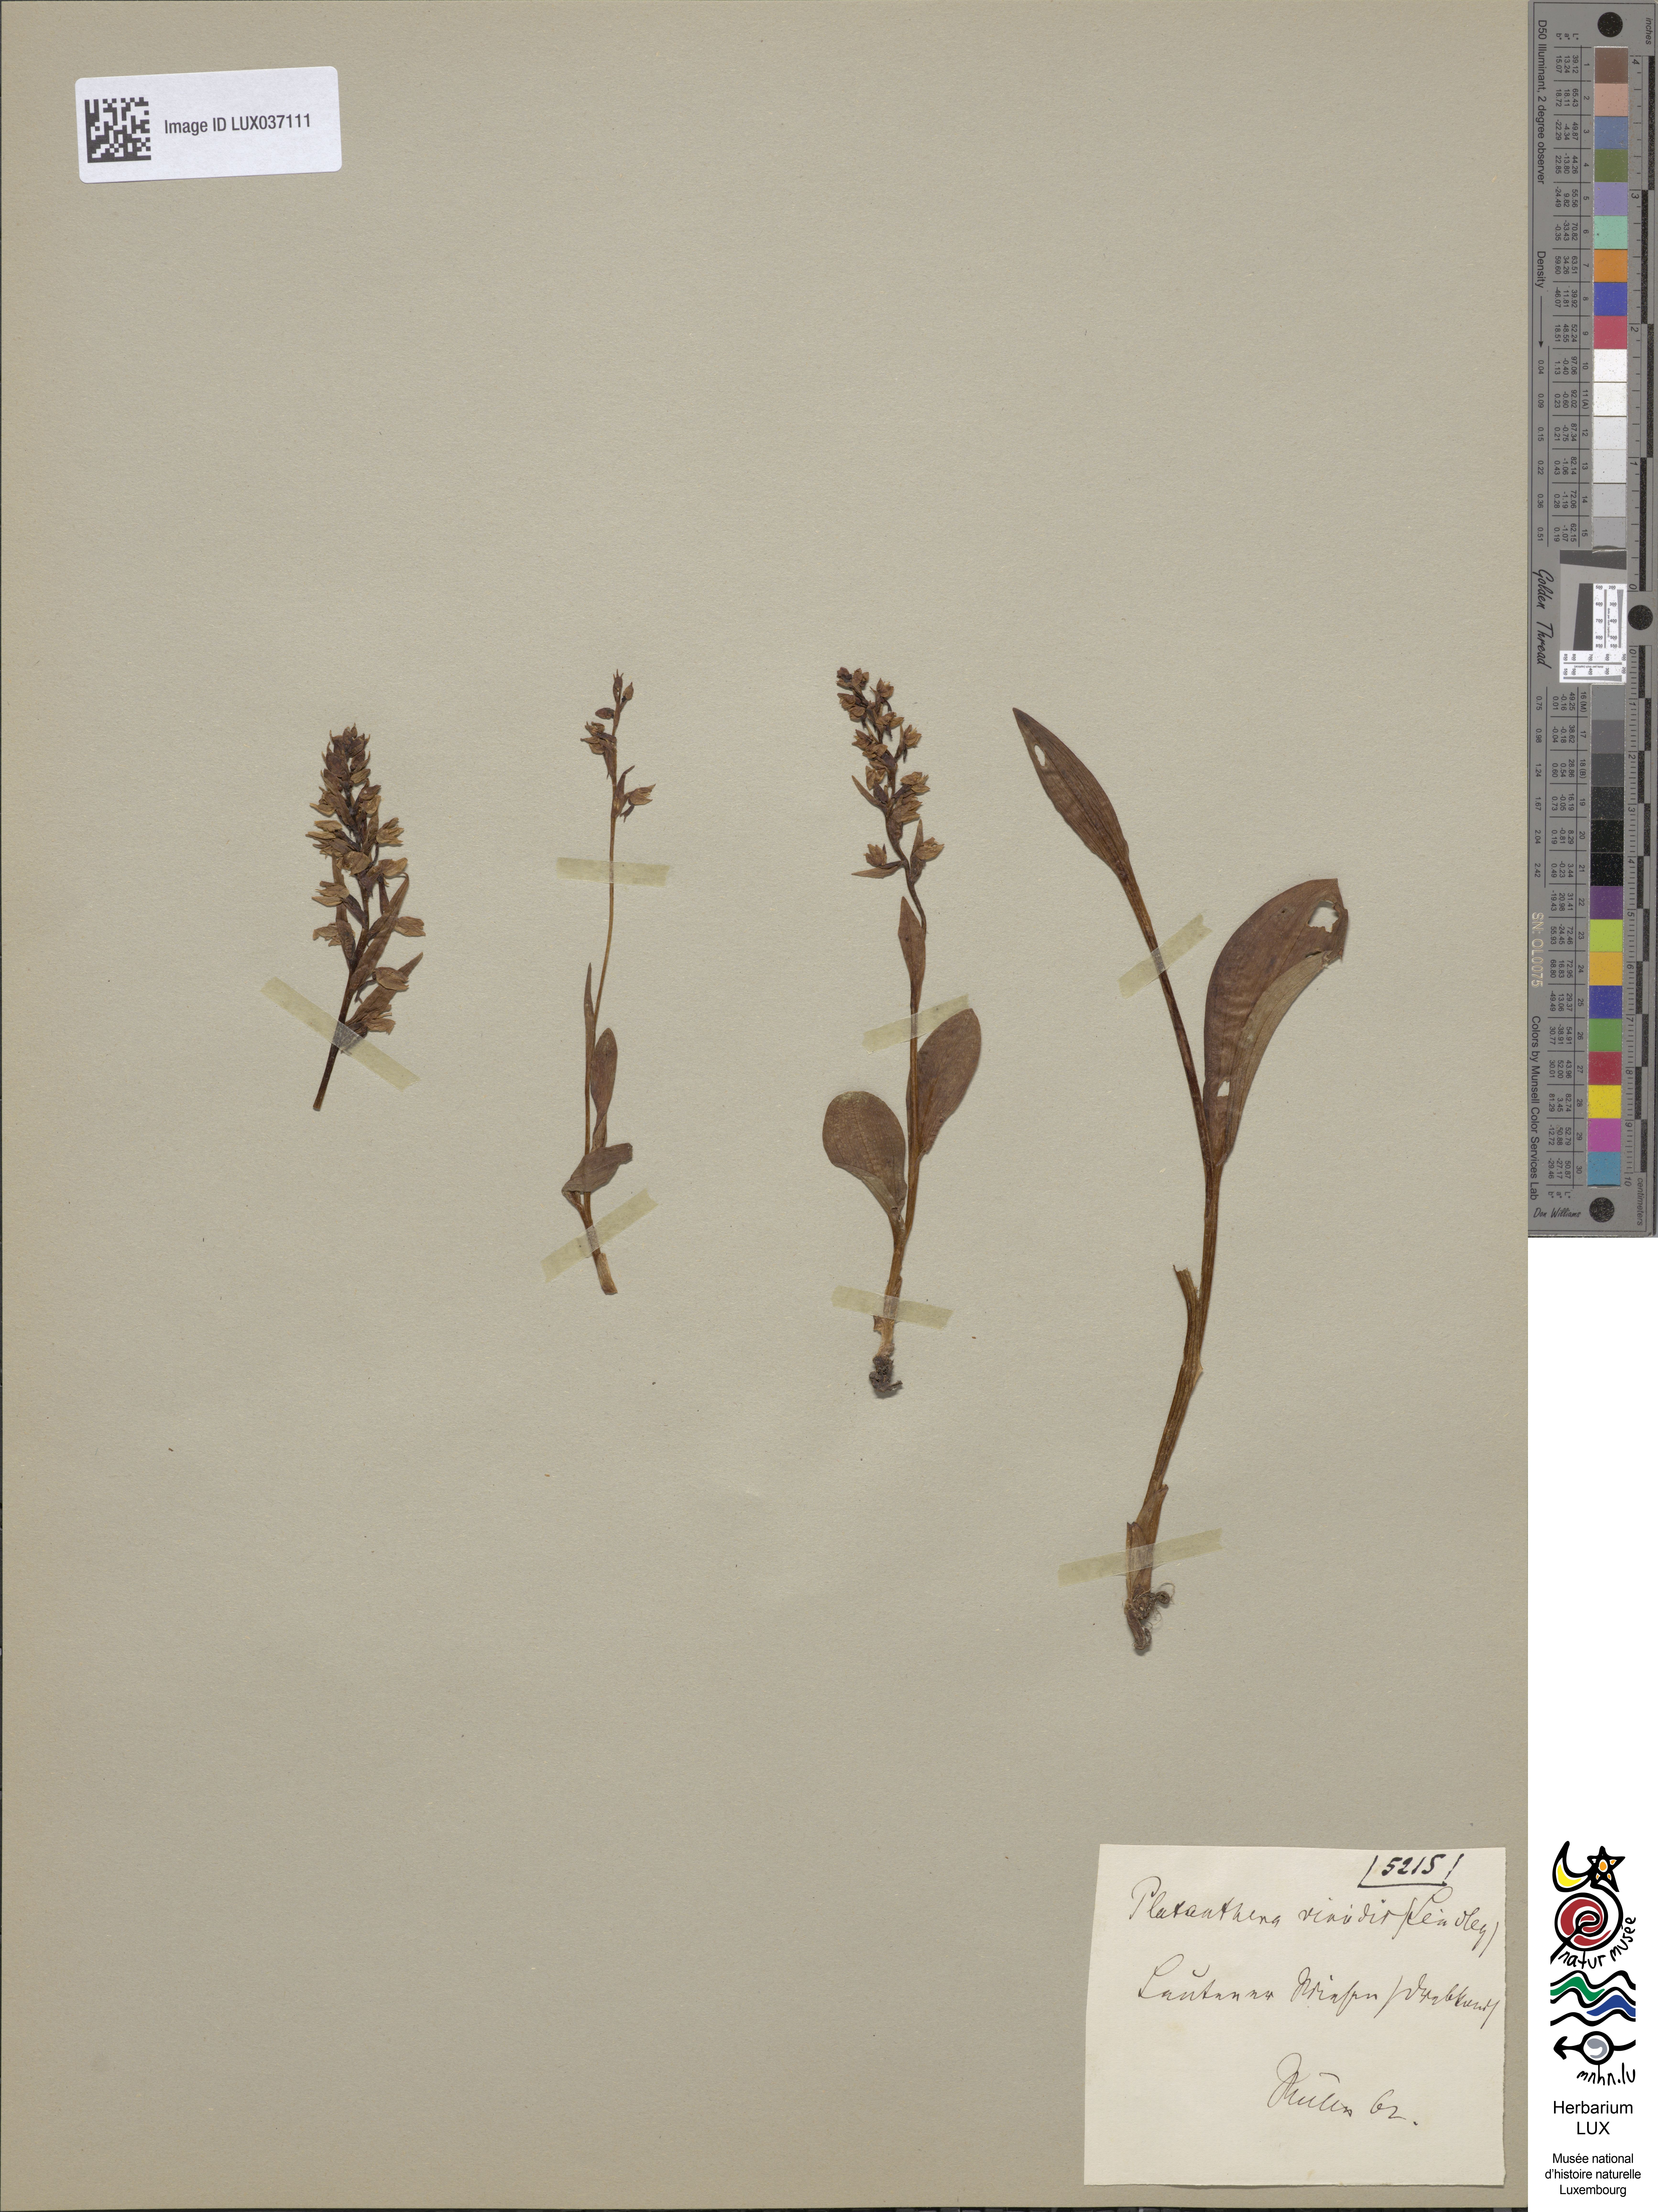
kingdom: Plantae
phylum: Tracheophyta
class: Liliopsida
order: Asparagales
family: Orchidaceae
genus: Dactylorhiza
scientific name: Dactylorhiza viridis
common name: Longbract frog orchid
